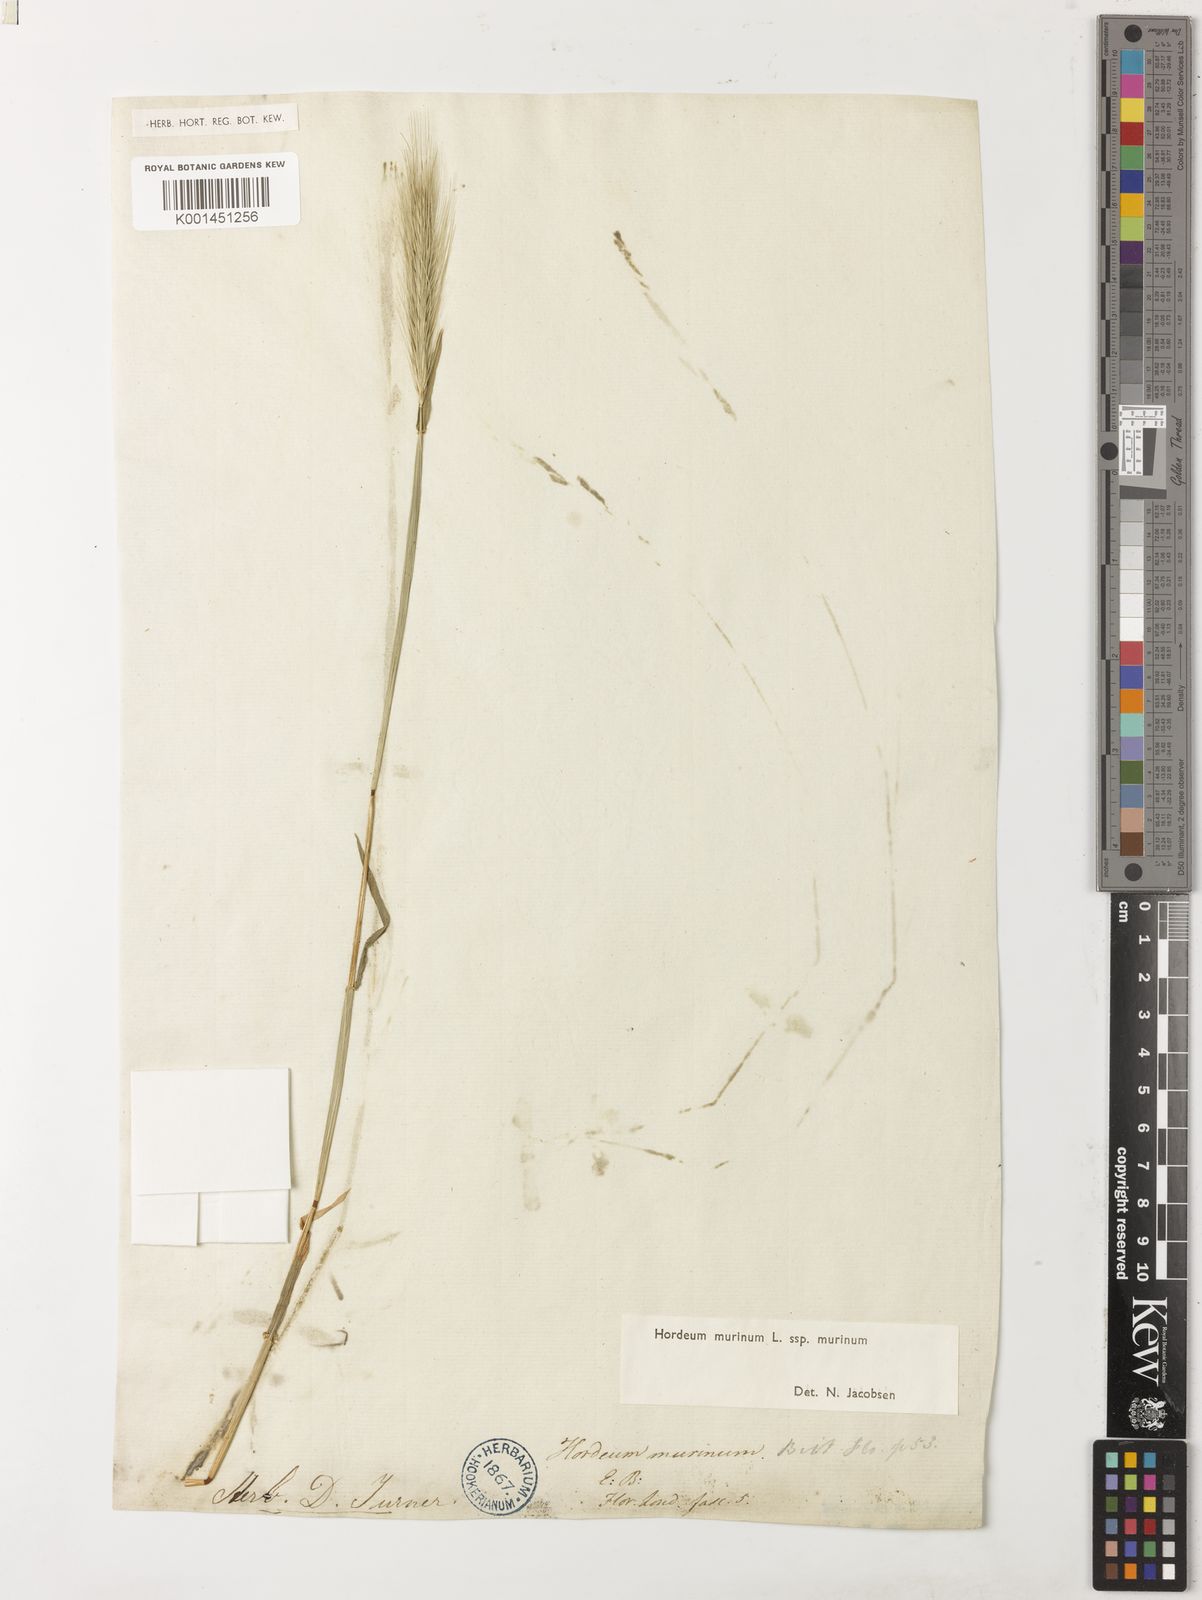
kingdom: Plantae
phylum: Tracheophyta
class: Liliopsida
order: Poales
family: Poaceae
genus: Hordeum
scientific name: Hordeum murinum
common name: Wall barley
